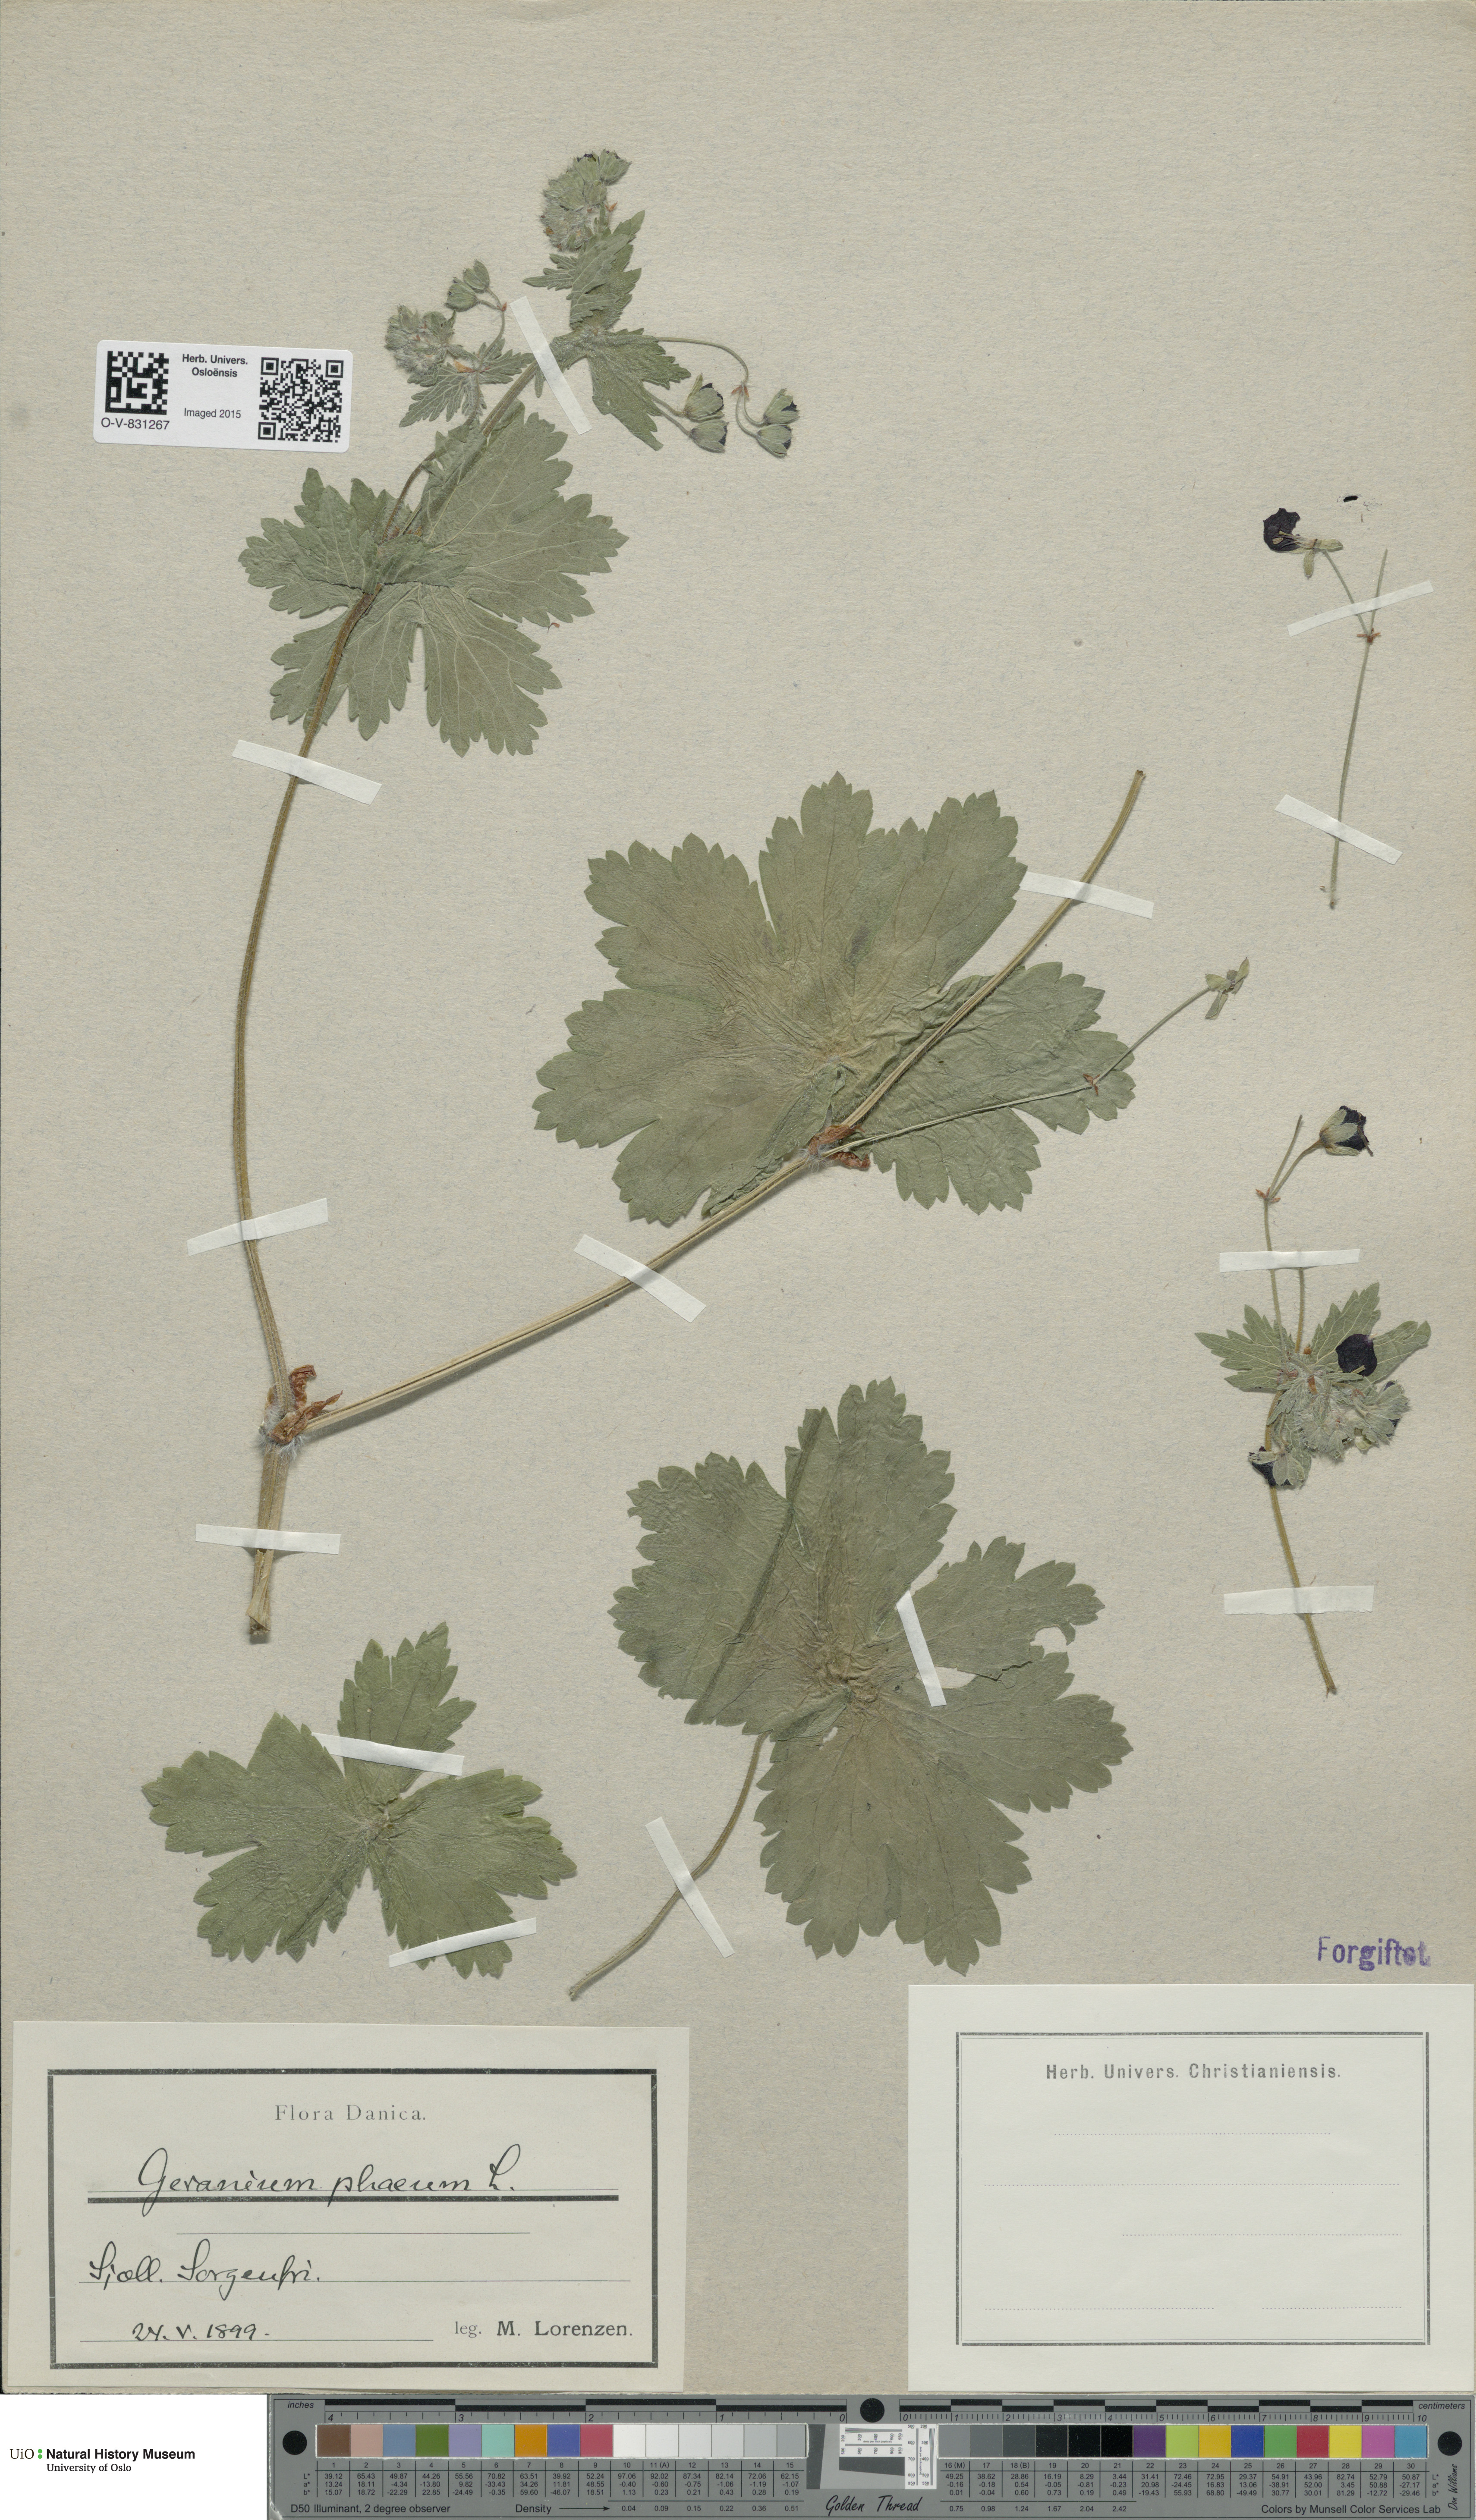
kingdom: Plantae
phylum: Tracheophyta
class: Magnoliopsida
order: Geraniales
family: Geraniaceae
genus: Geranium
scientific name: Geranium phaeum
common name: Dusky crane's-bill
